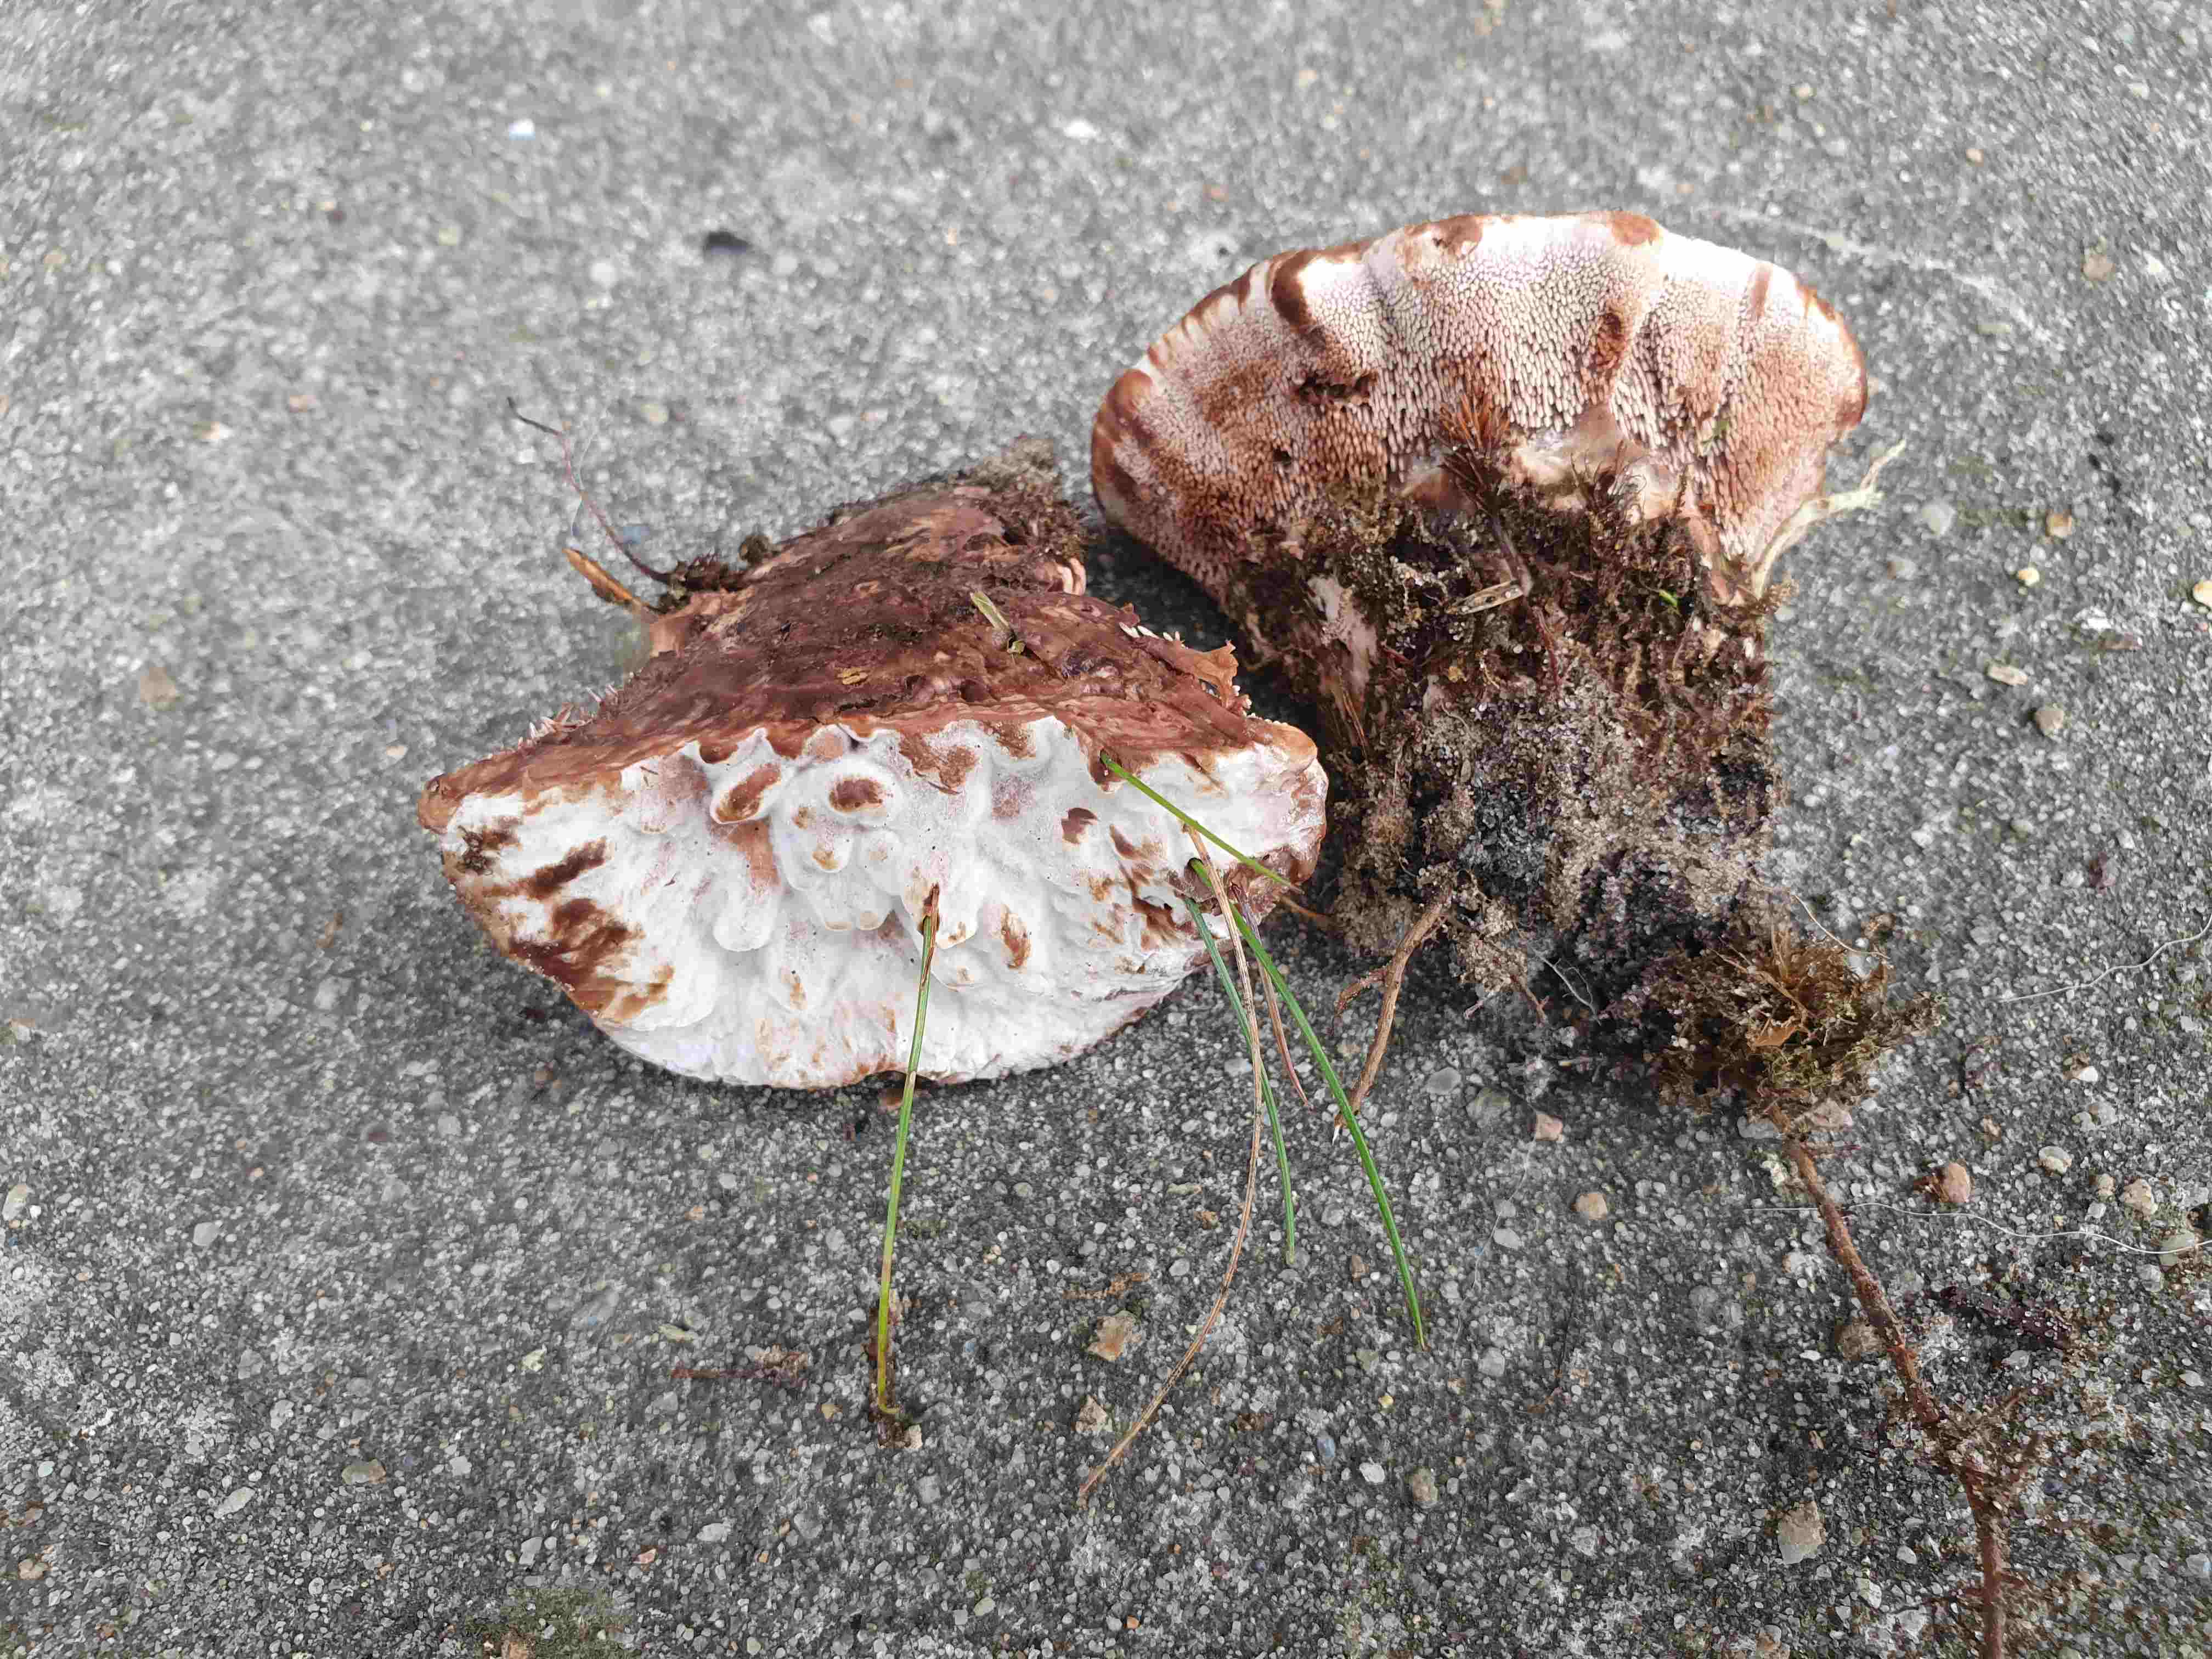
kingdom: Fungi
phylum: Basidiomycota
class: Agaricomycetes
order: Thelephorales
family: Bankeraceae
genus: Hydnellum
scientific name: Hydnellum ferrugineum
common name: rust-korkpigsvamp
